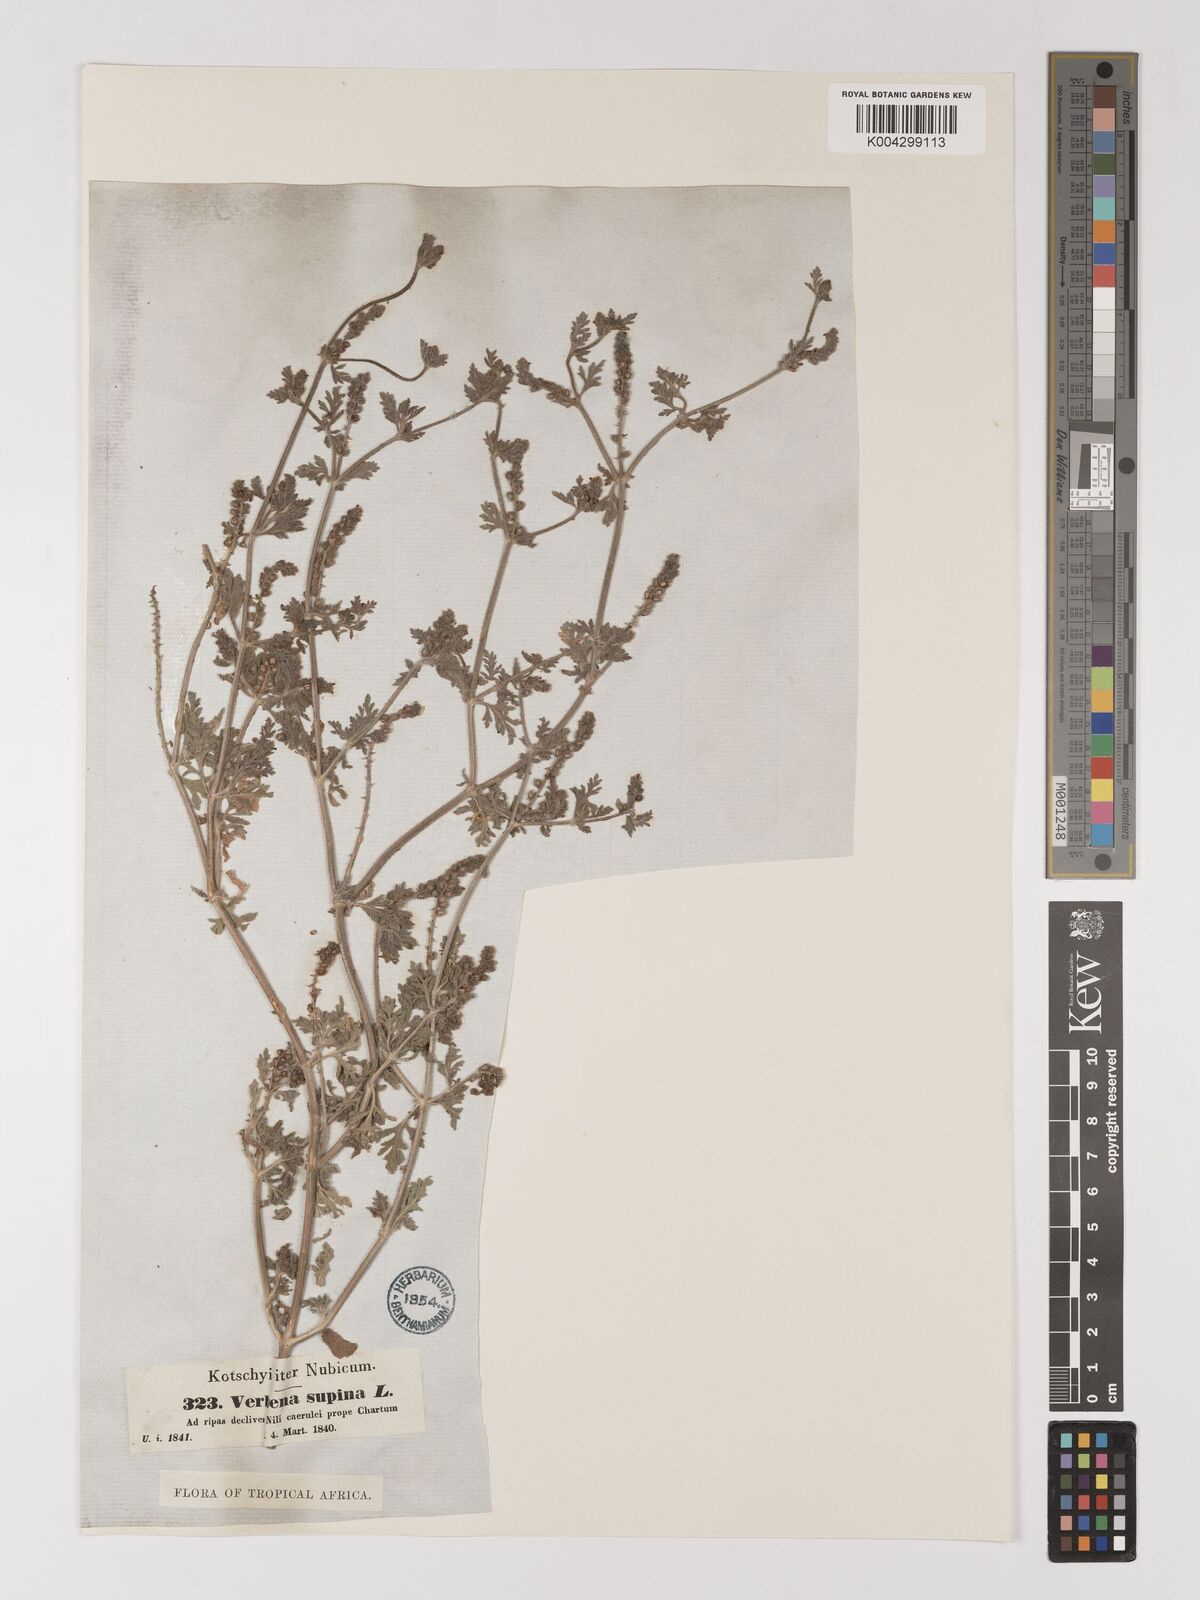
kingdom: Plantae
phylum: Tracheophyta
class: Magnoliopsida
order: Lamiales
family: Verbenaceae
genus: Verbena
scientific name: Verbena supina
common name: Trailing vervain
